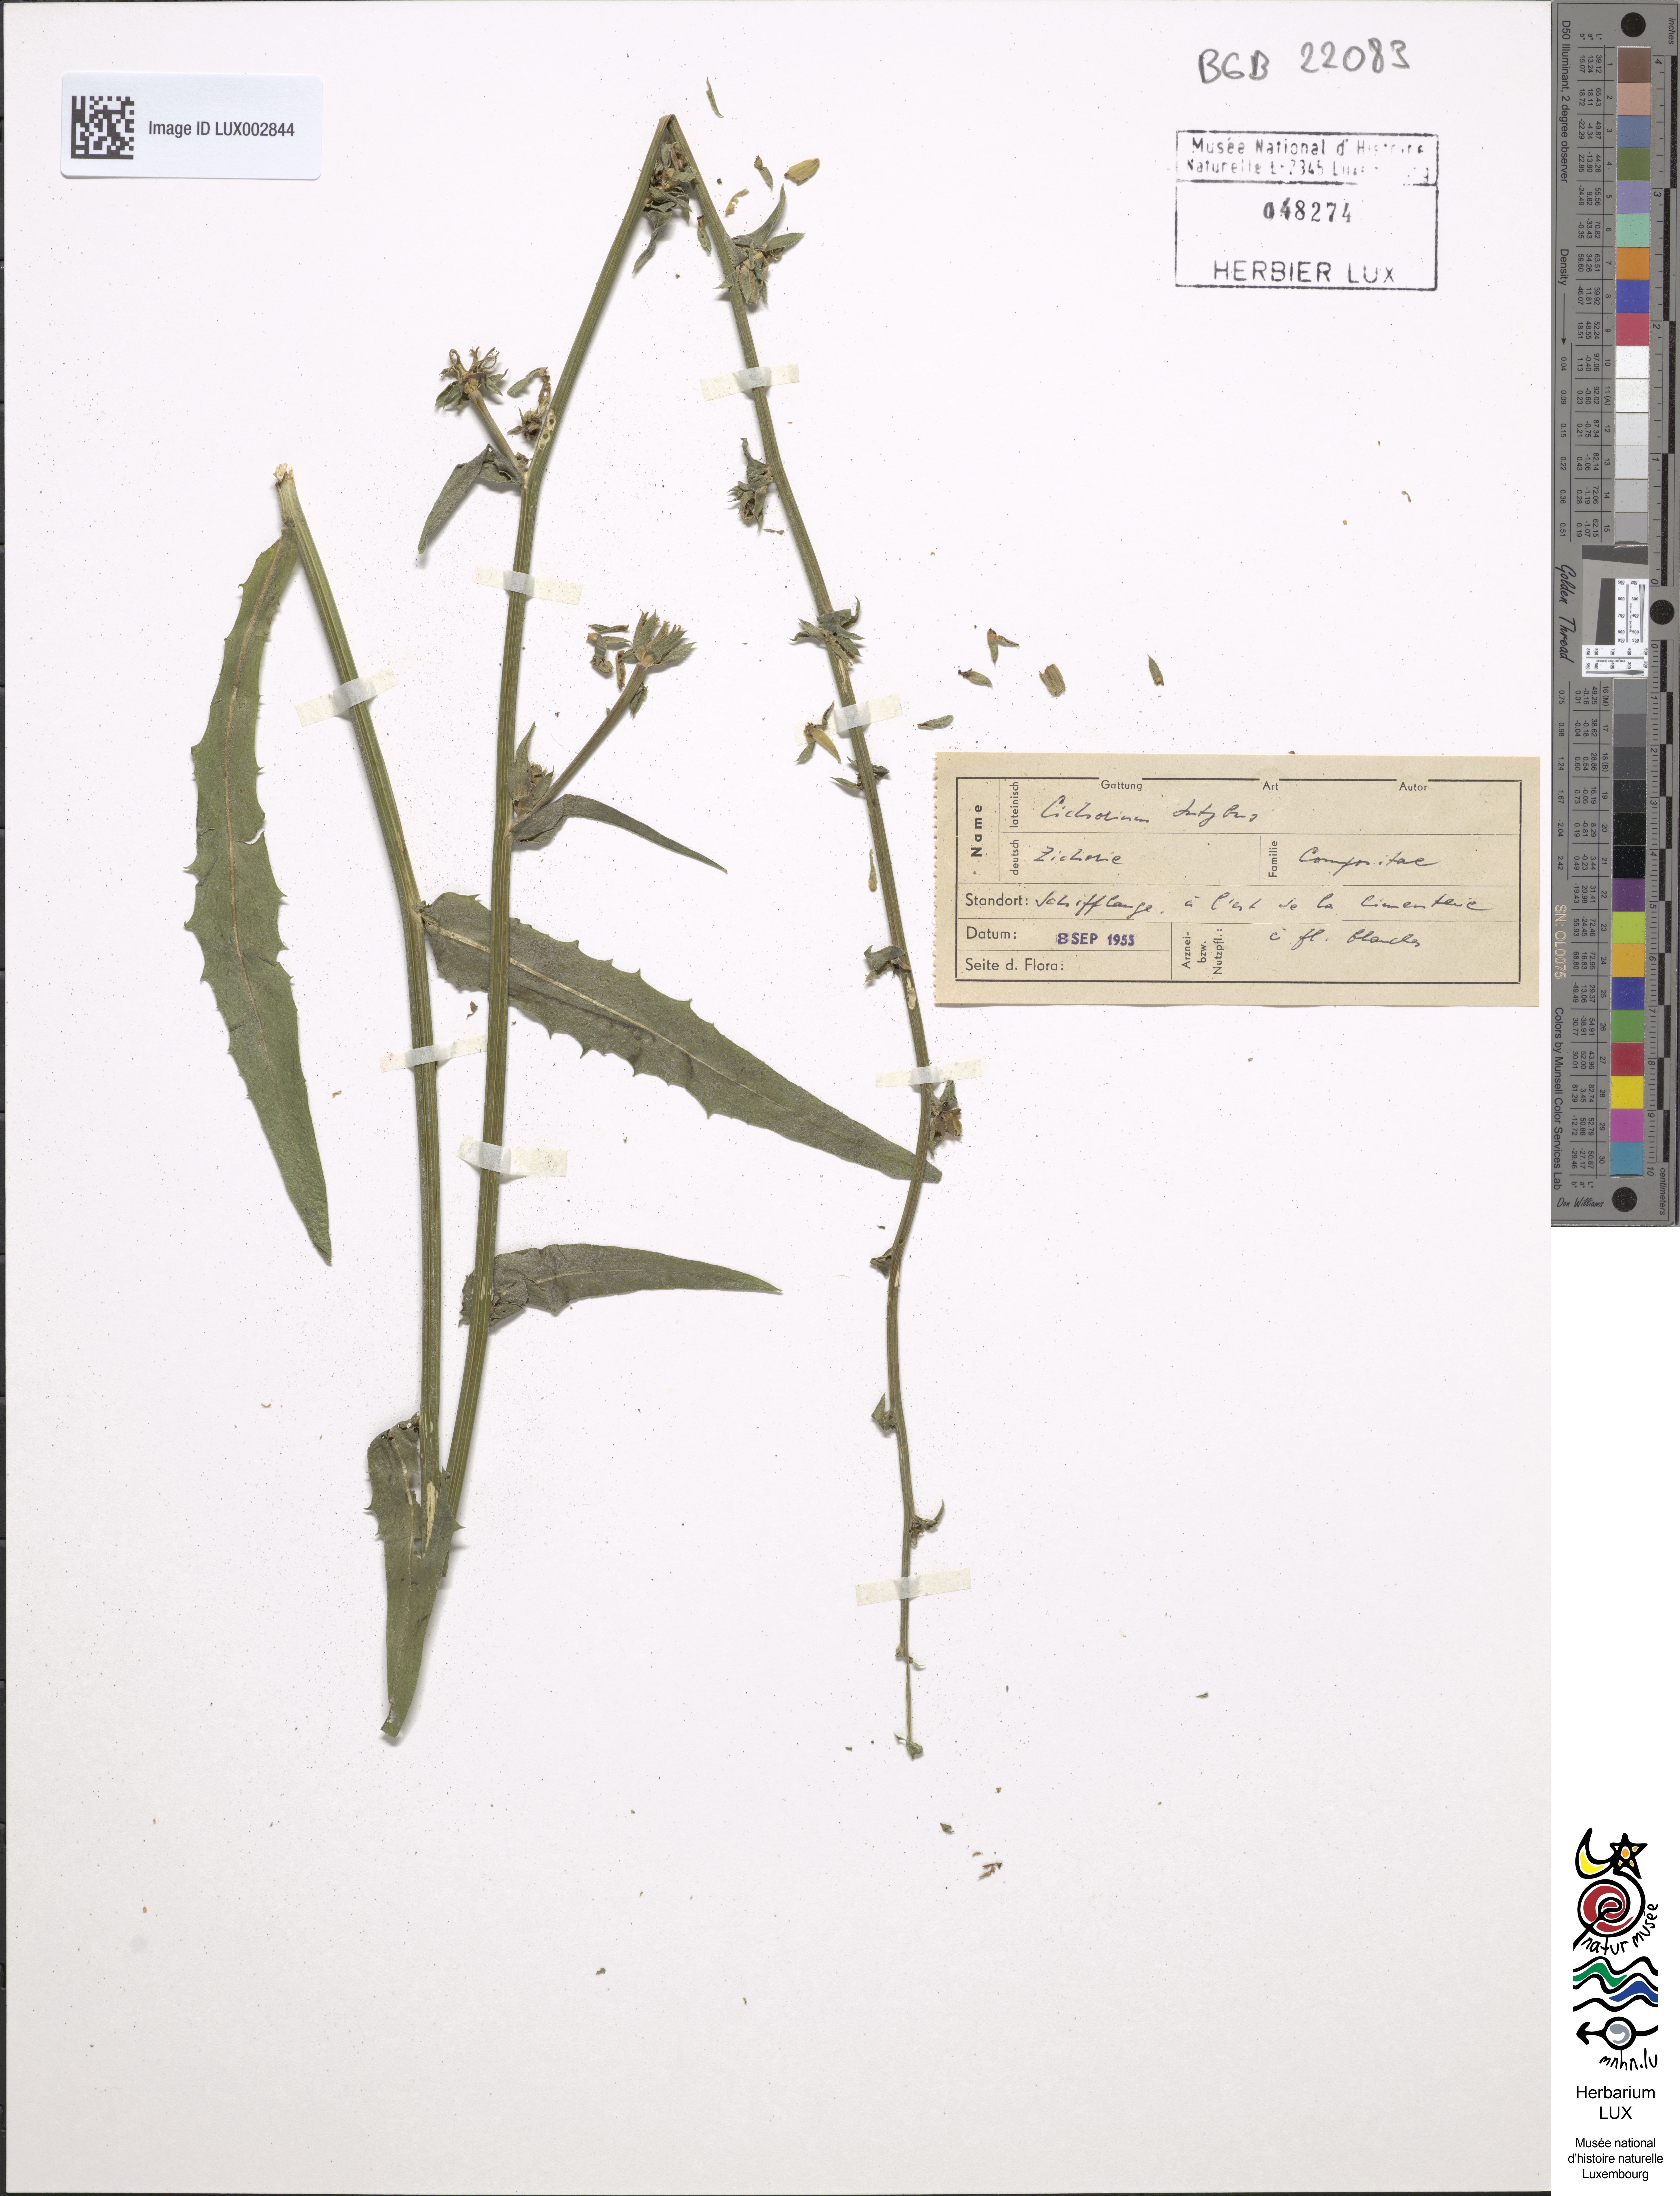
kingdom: Plantae
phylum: Tracheophyta
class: Magnoliopsida
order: Asterales
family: Asteraceae
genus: Cichorium
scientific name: Cichorium intybus
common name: Chicory
